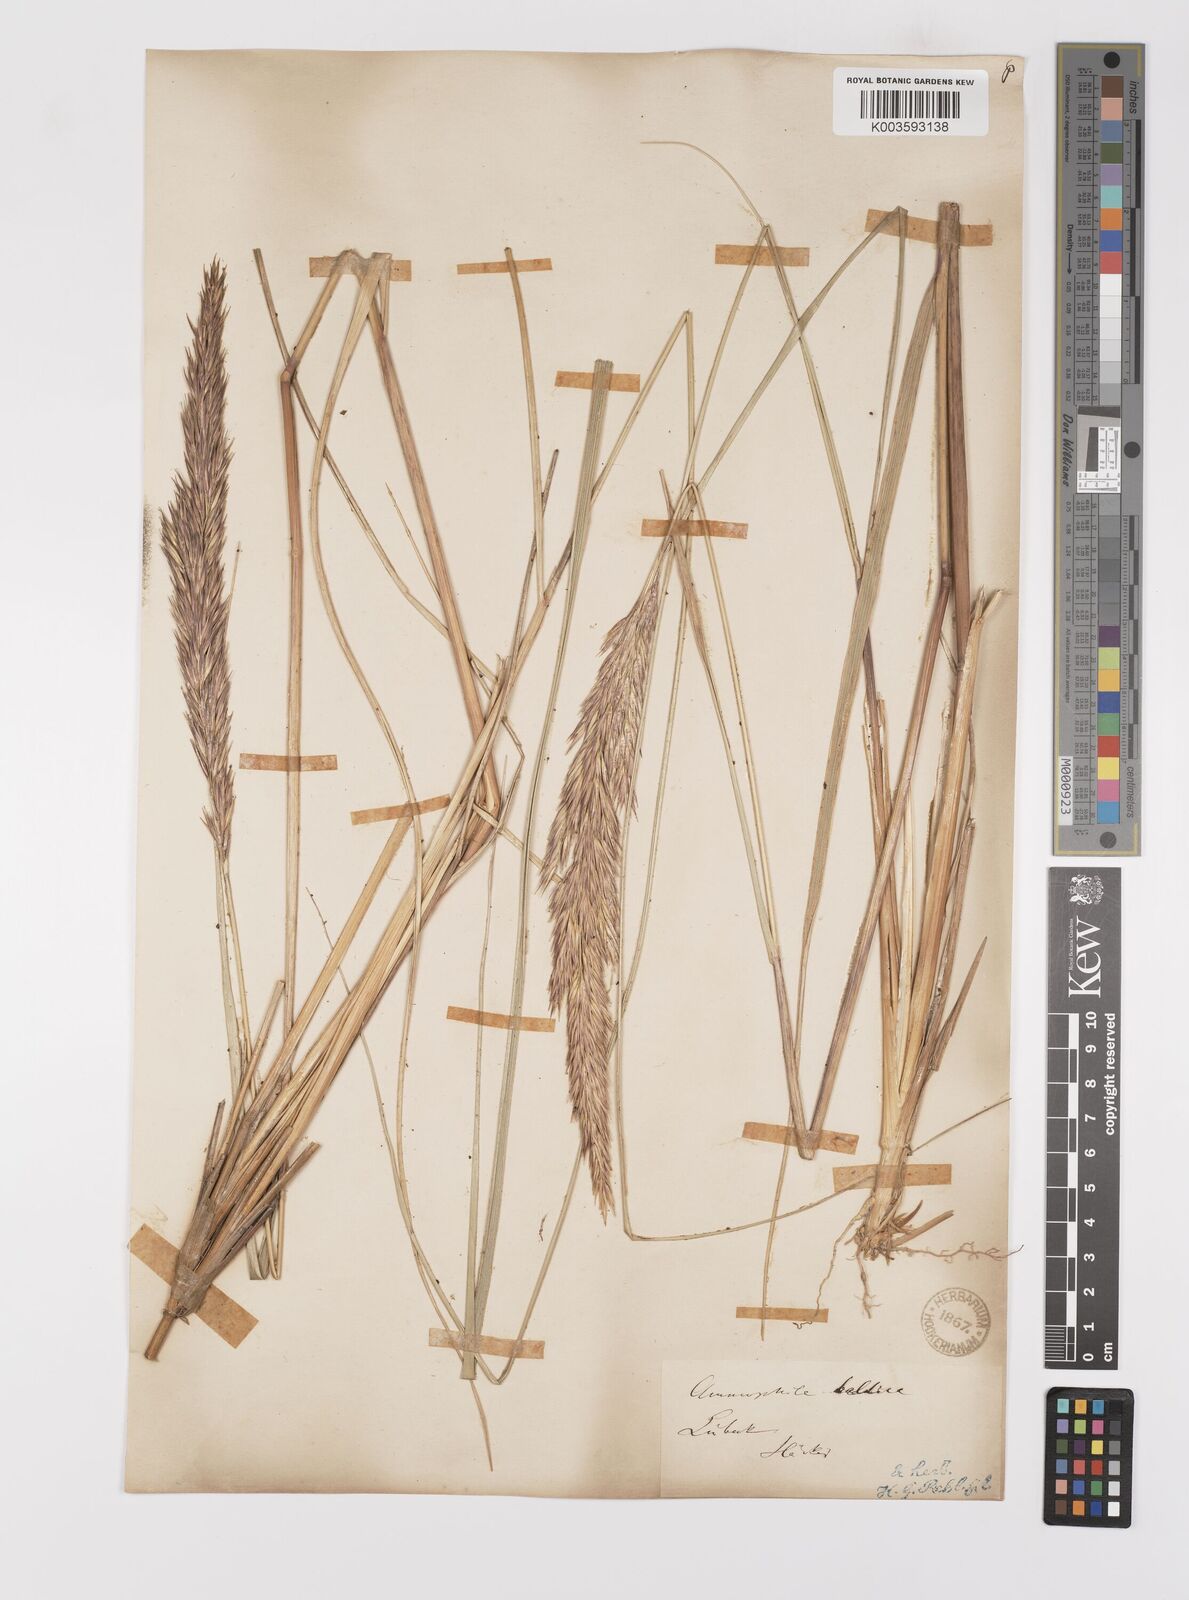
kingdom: Plantae
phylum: Tracheophyta
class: Liliopsida
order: Poales
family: Poaceae
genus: Calamagrostis
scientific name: Calamagrostis baltica
